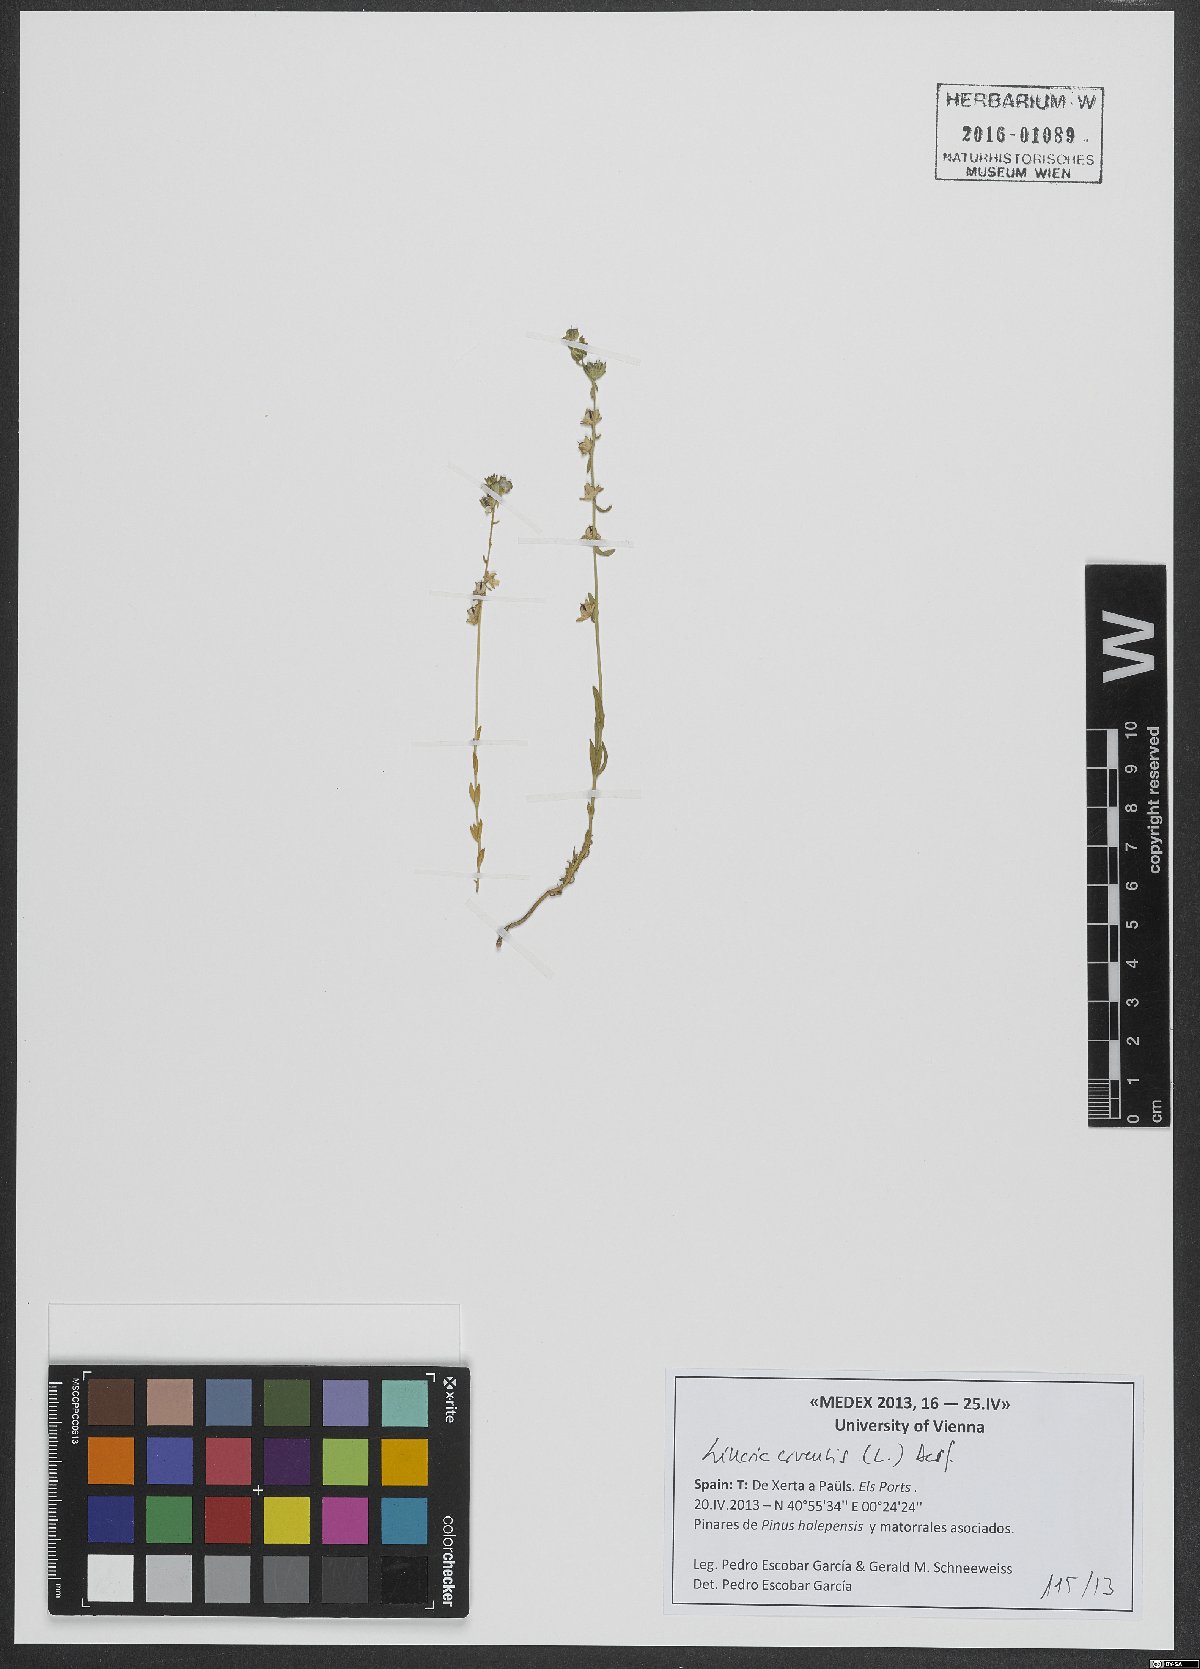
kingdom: Plantae
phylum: Tracheophyta
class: Magnoliopsida
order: Lamiales
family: Plantaginaceae
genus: Linaria
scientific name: Linaria arvensis
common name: Corn toadflax
